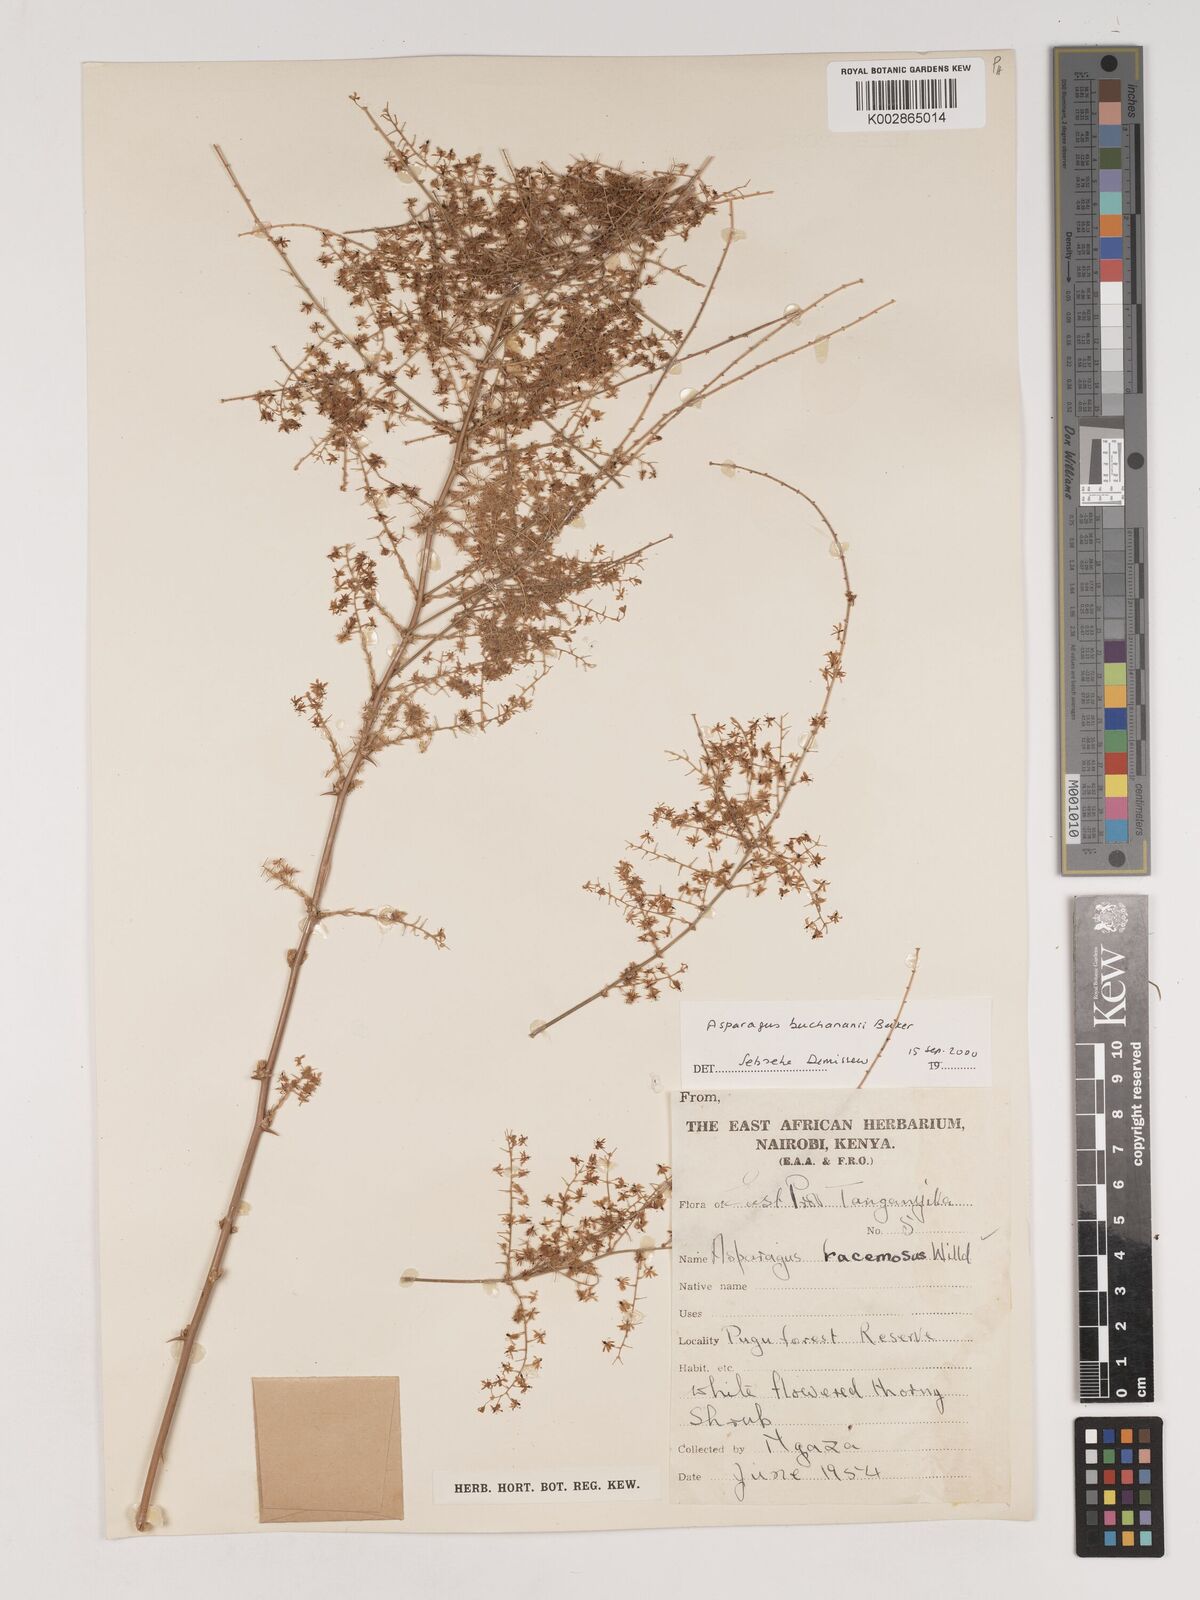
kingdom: Plantae
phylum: Tracheophyta
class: Liliopsida
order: Asparagales
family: Asparagaceae
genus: Asparagus
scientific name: Asparagus buchananii
